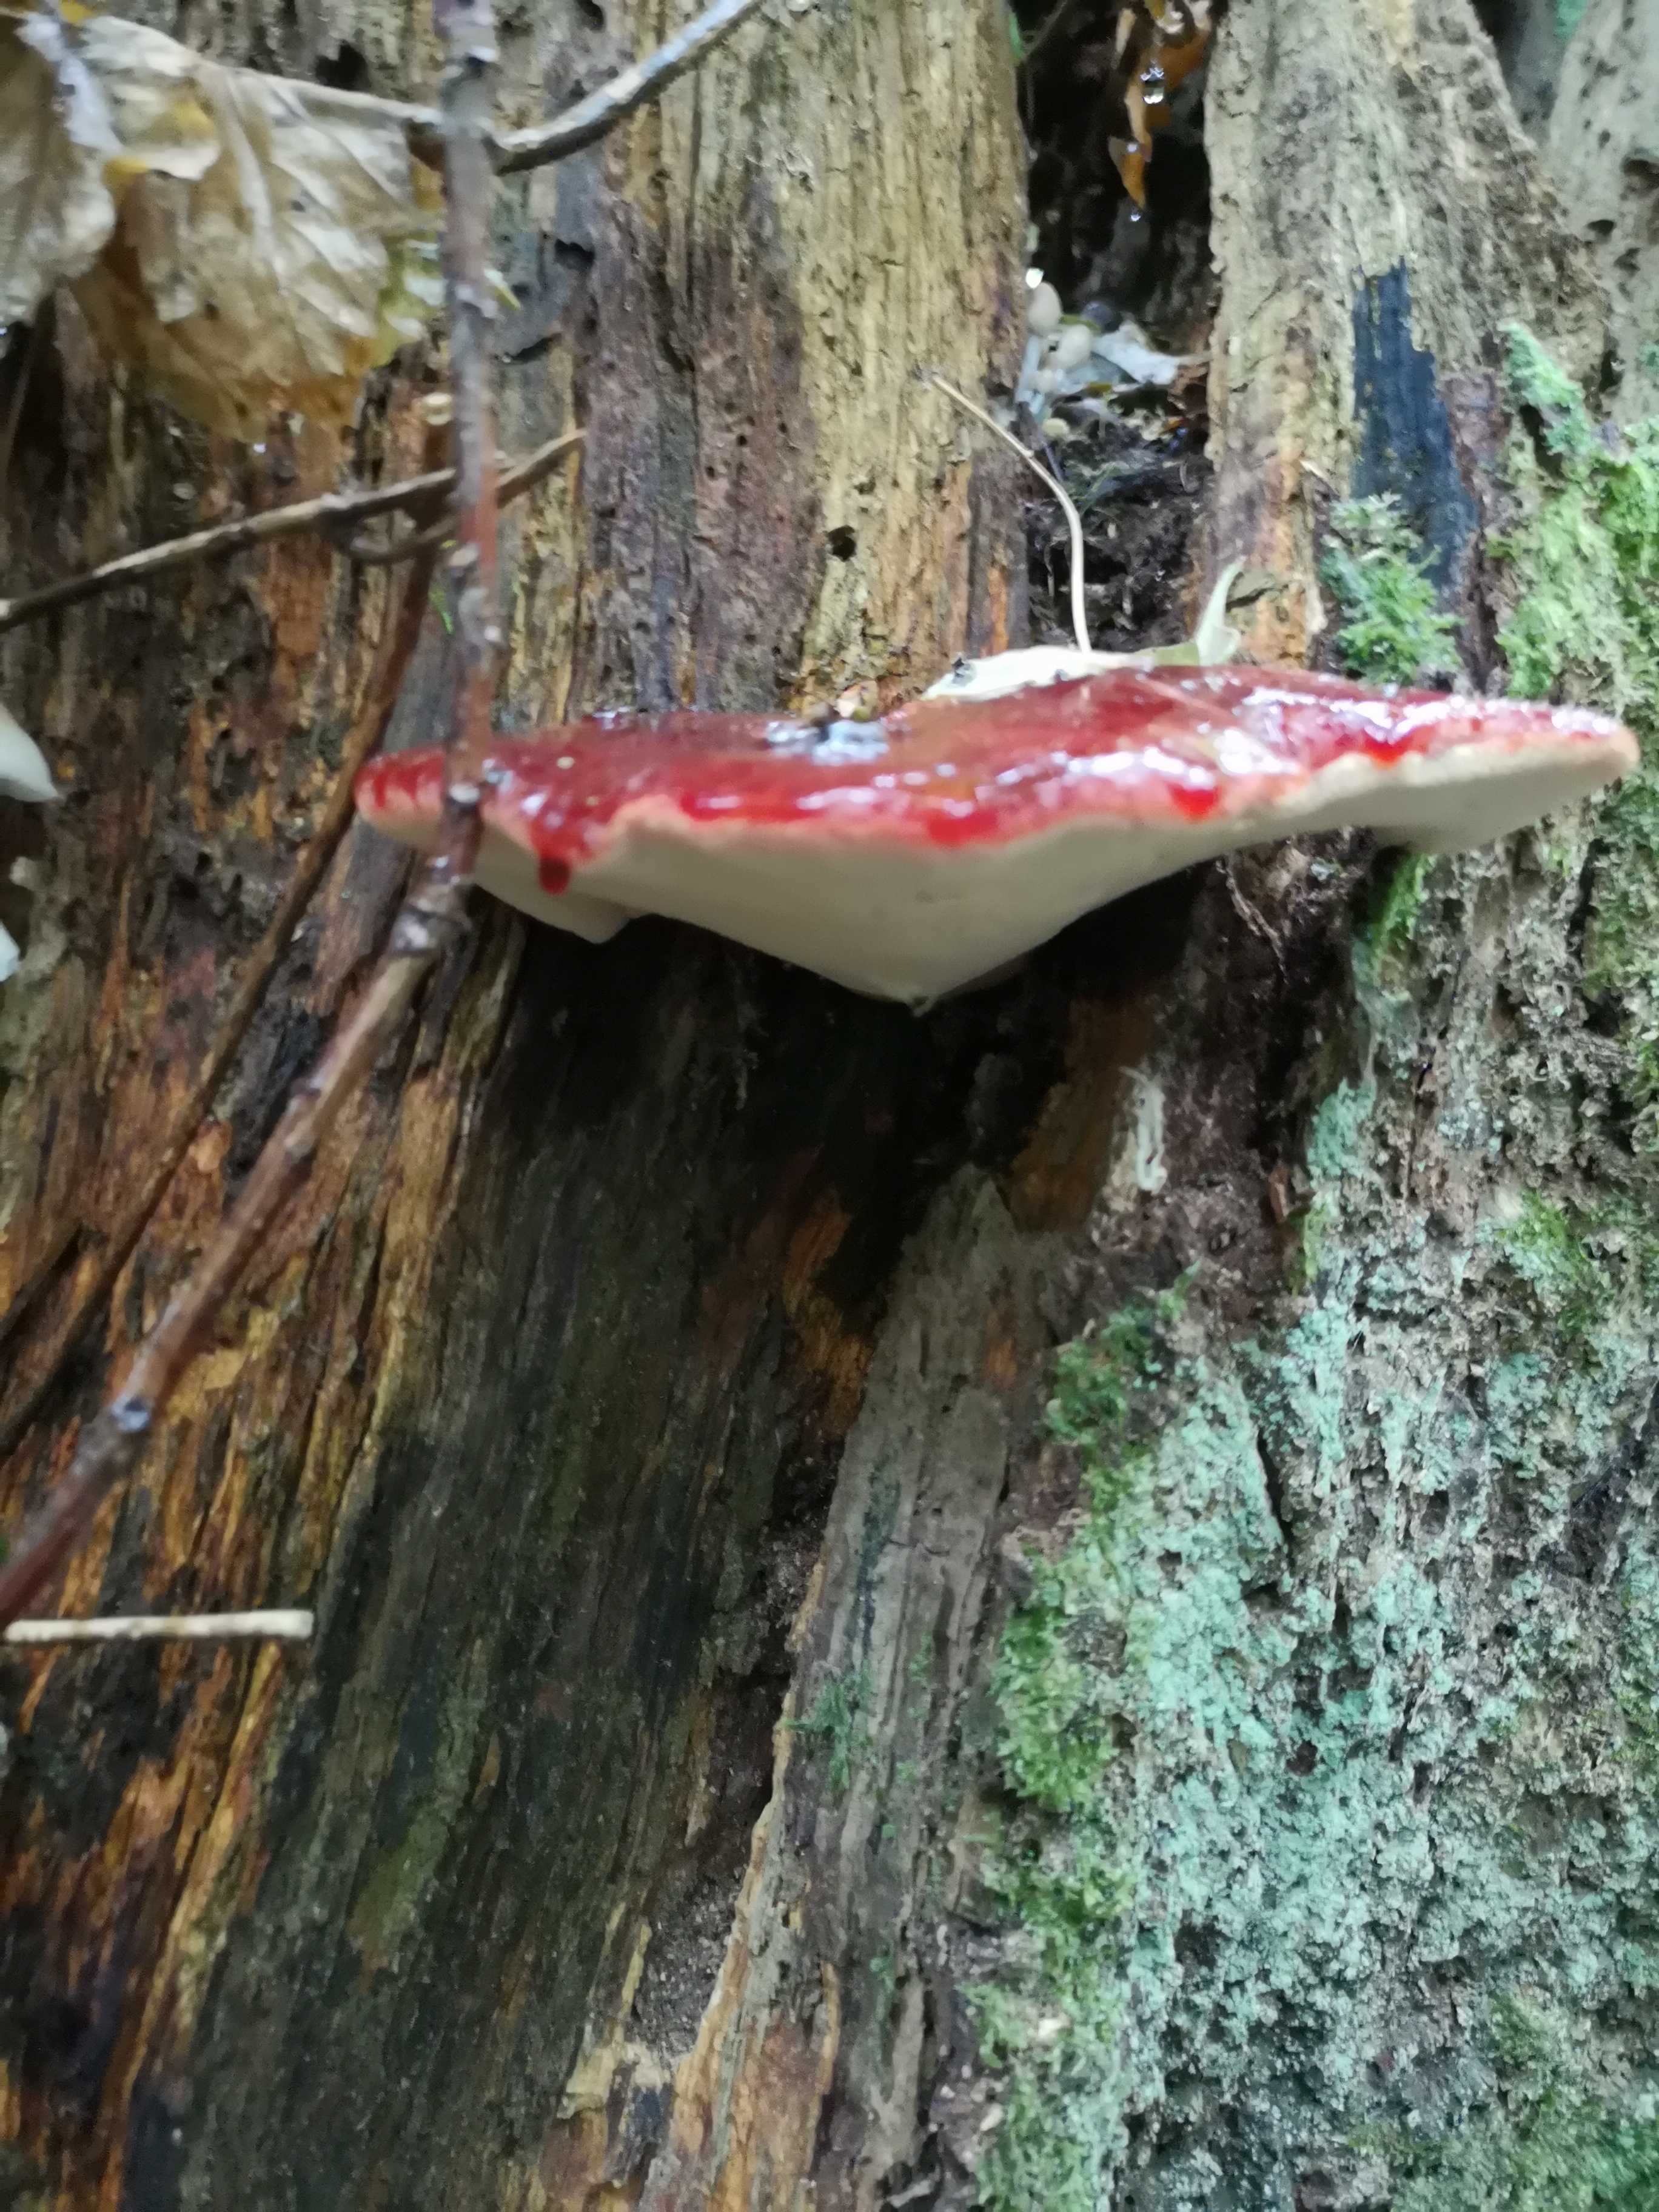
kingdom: Fungi
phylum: Basidiomycota
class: Agaricomycetes
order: Agaricales
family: Fistulinaceae
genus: Fistulina
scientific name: Fistulina hepatica
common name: oksetunge
